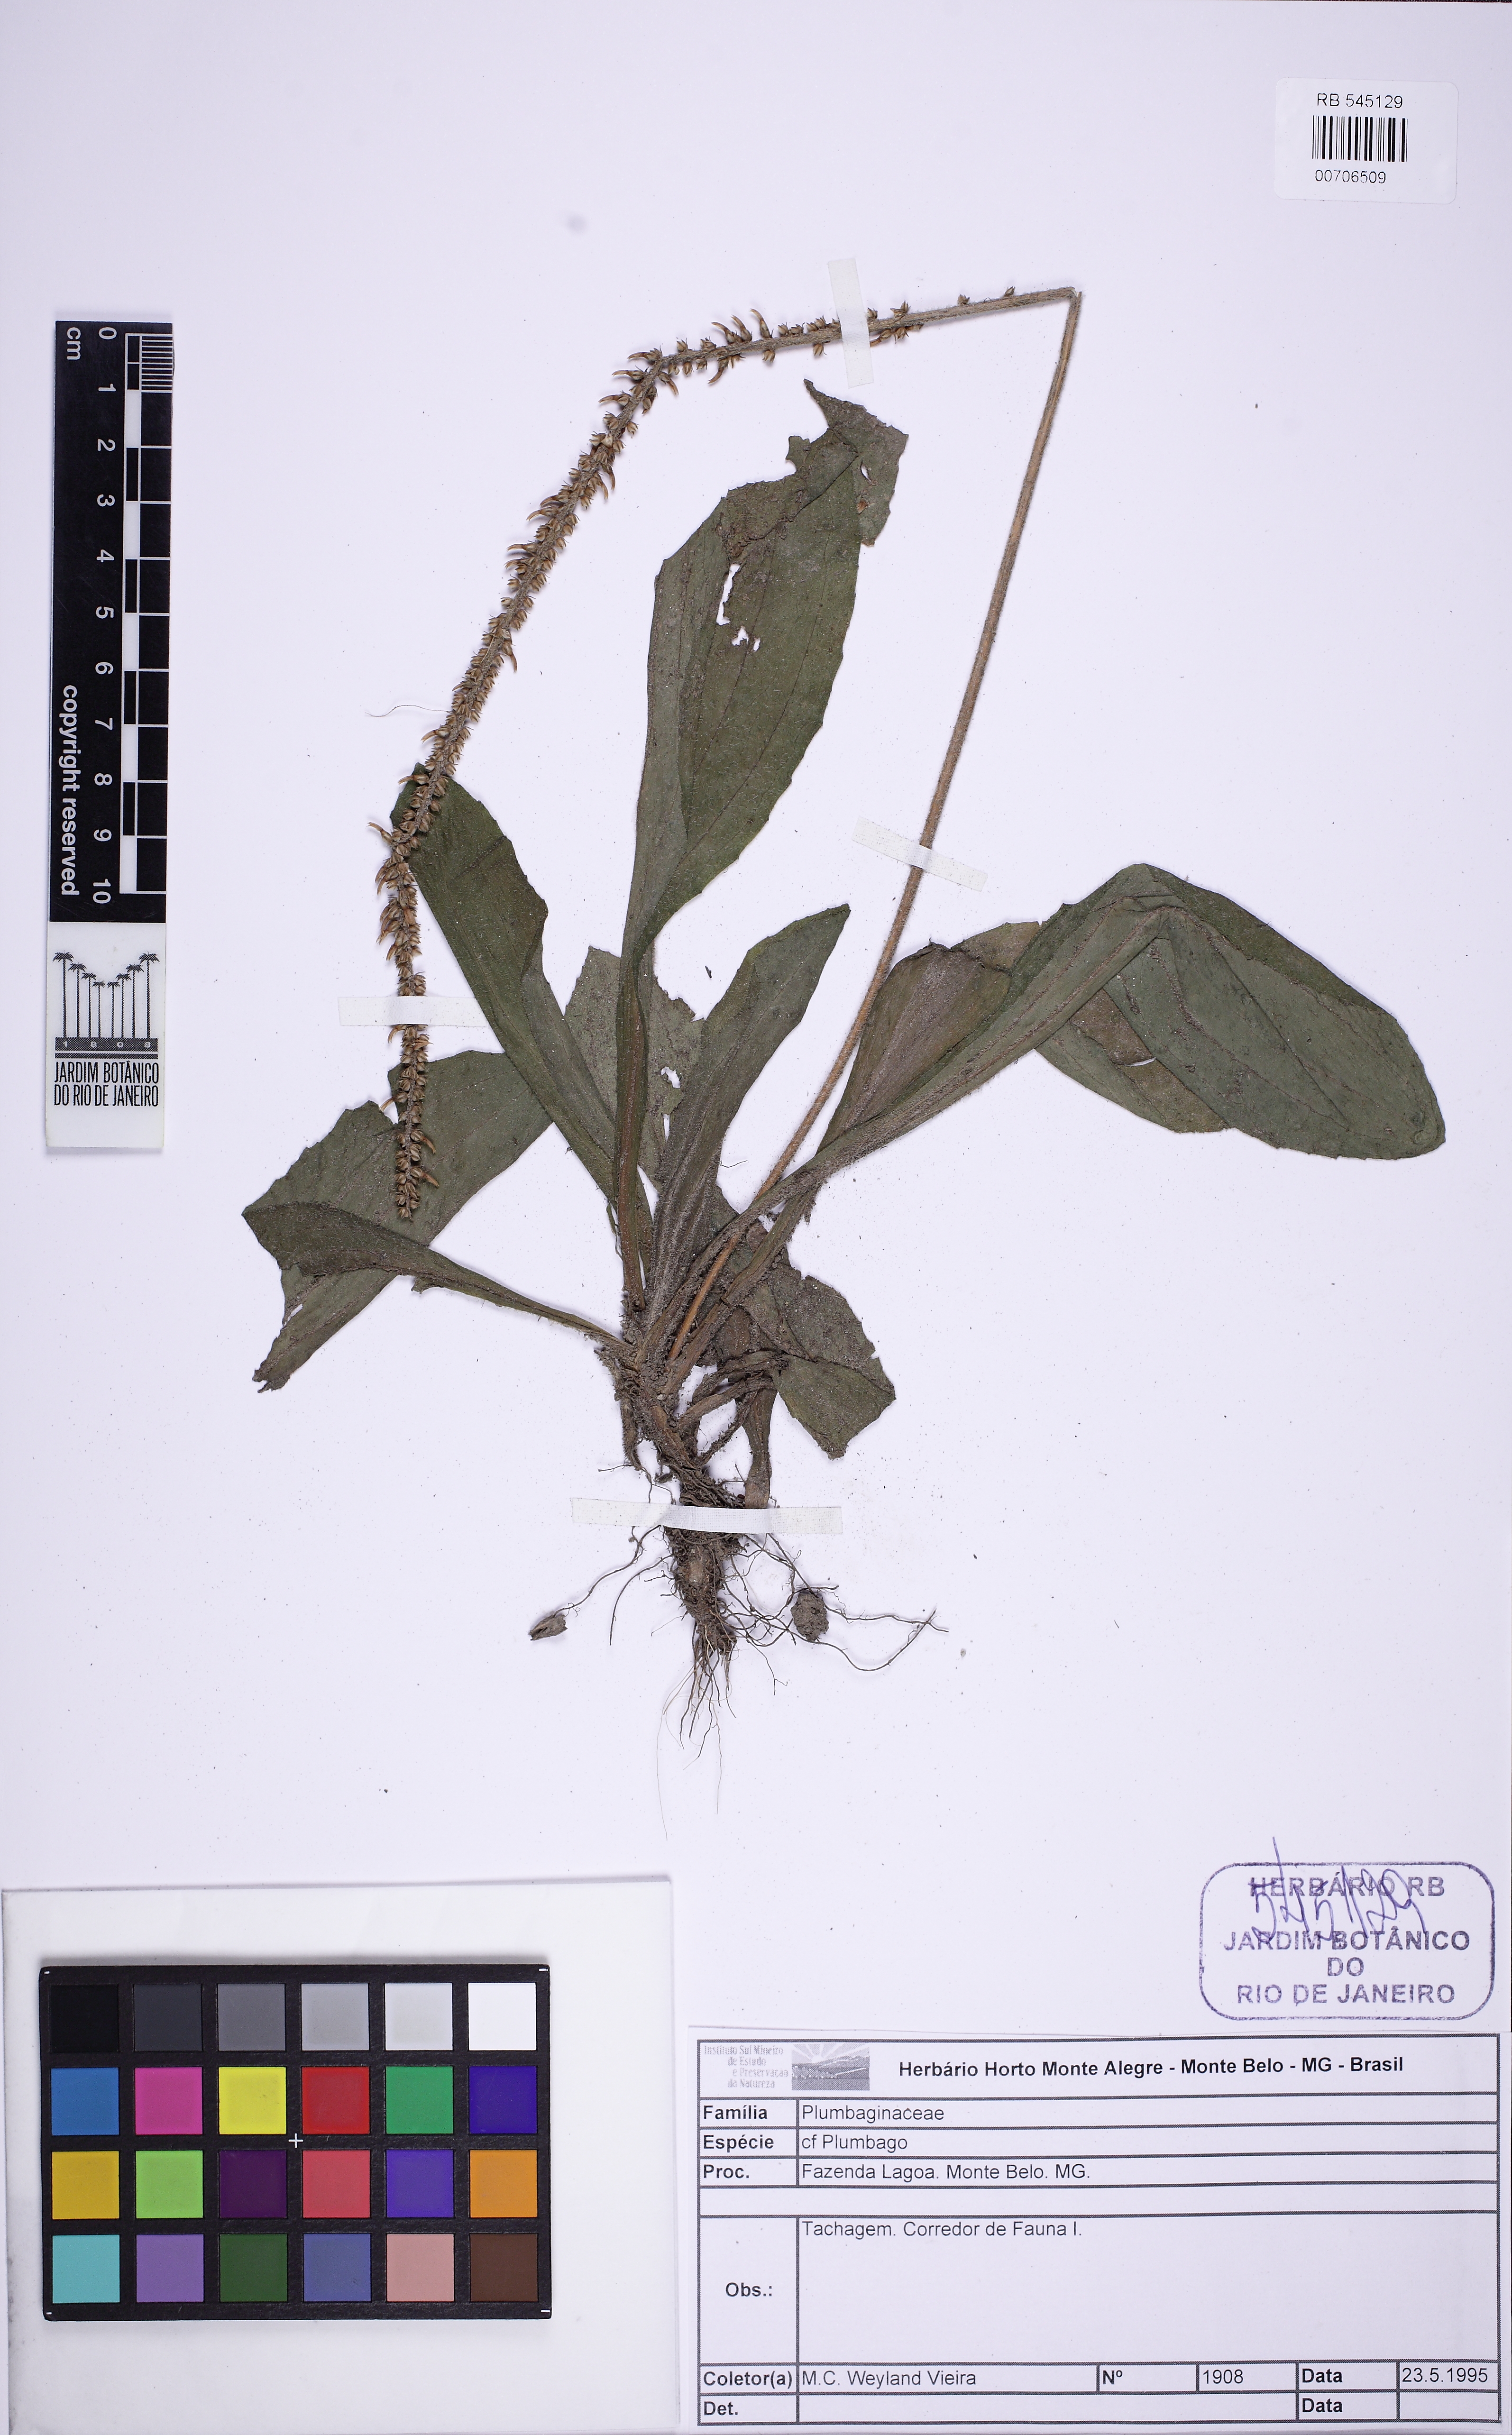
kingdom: Plantae
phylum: Tracheophyta
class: Magnoliopsida
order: Caryophyllales
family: Plumbaginaceae
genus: Plumbago
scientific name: Plumbago
